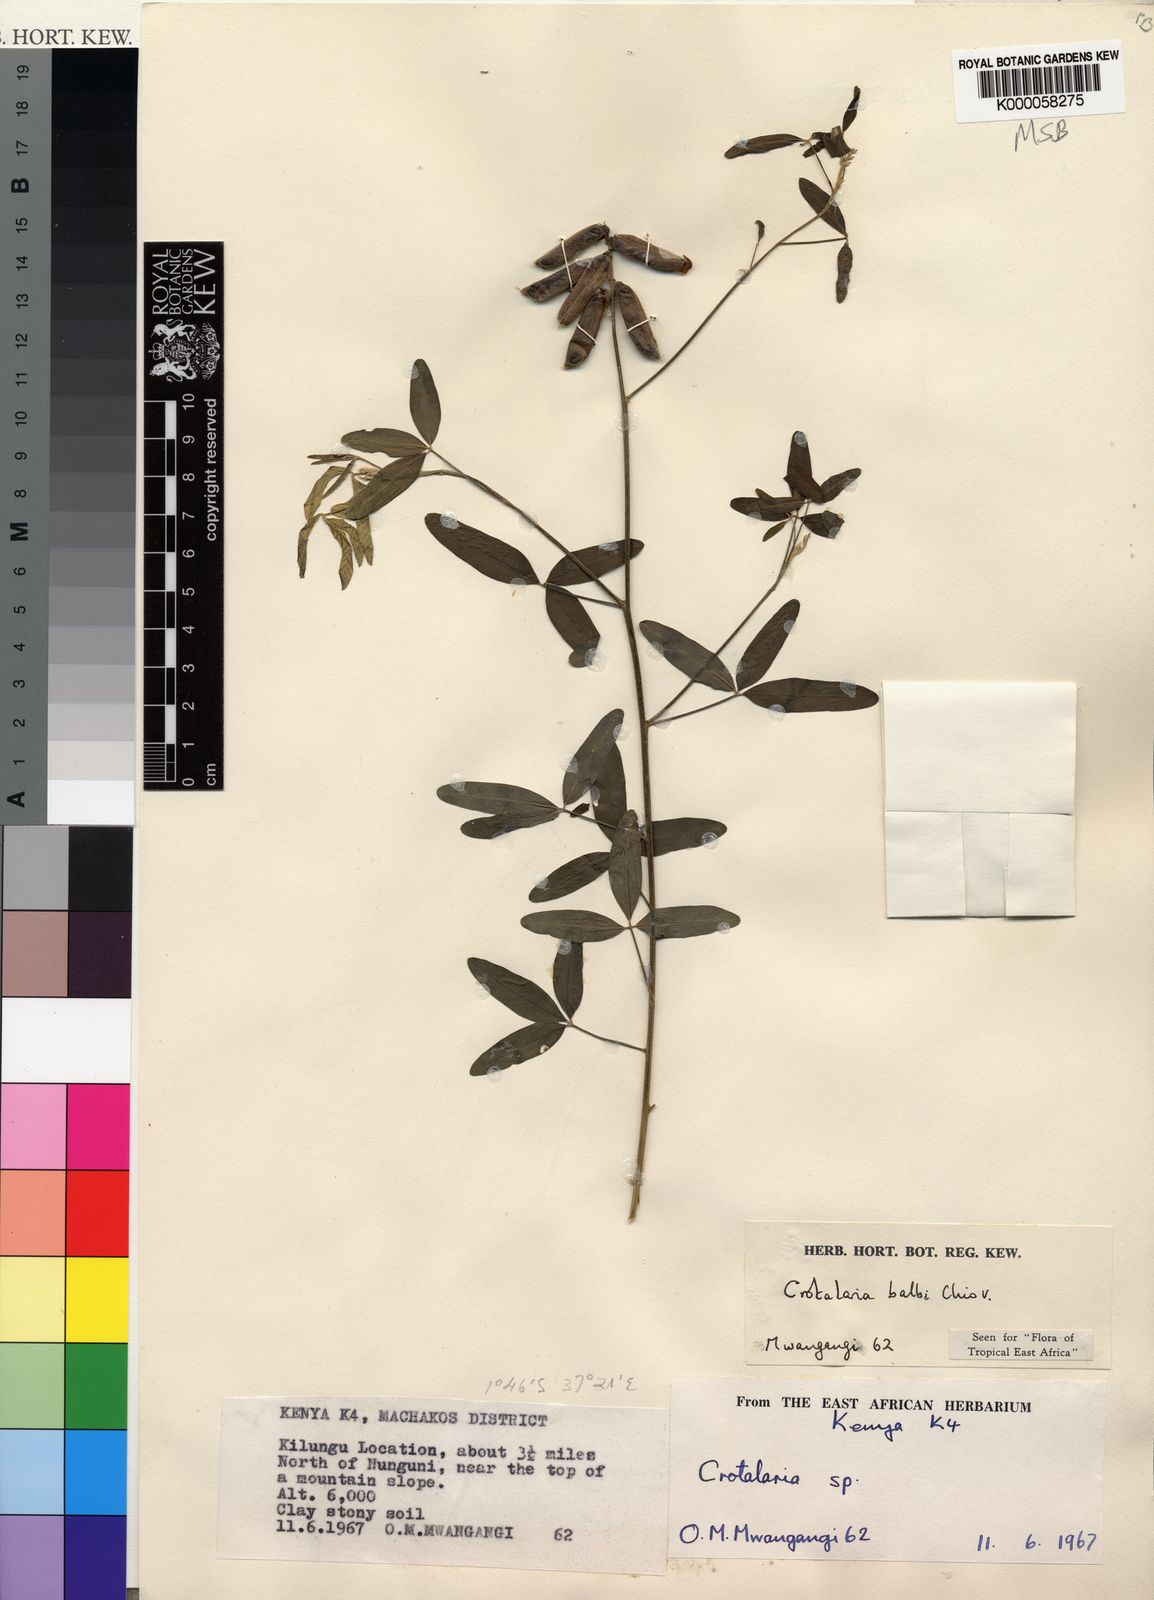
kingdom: Plantae
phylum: Tracheophyta
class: Magnoliopsida
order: Fabales
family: Fabaceae
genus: Crotalaria
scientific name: Crotalaria balbi
